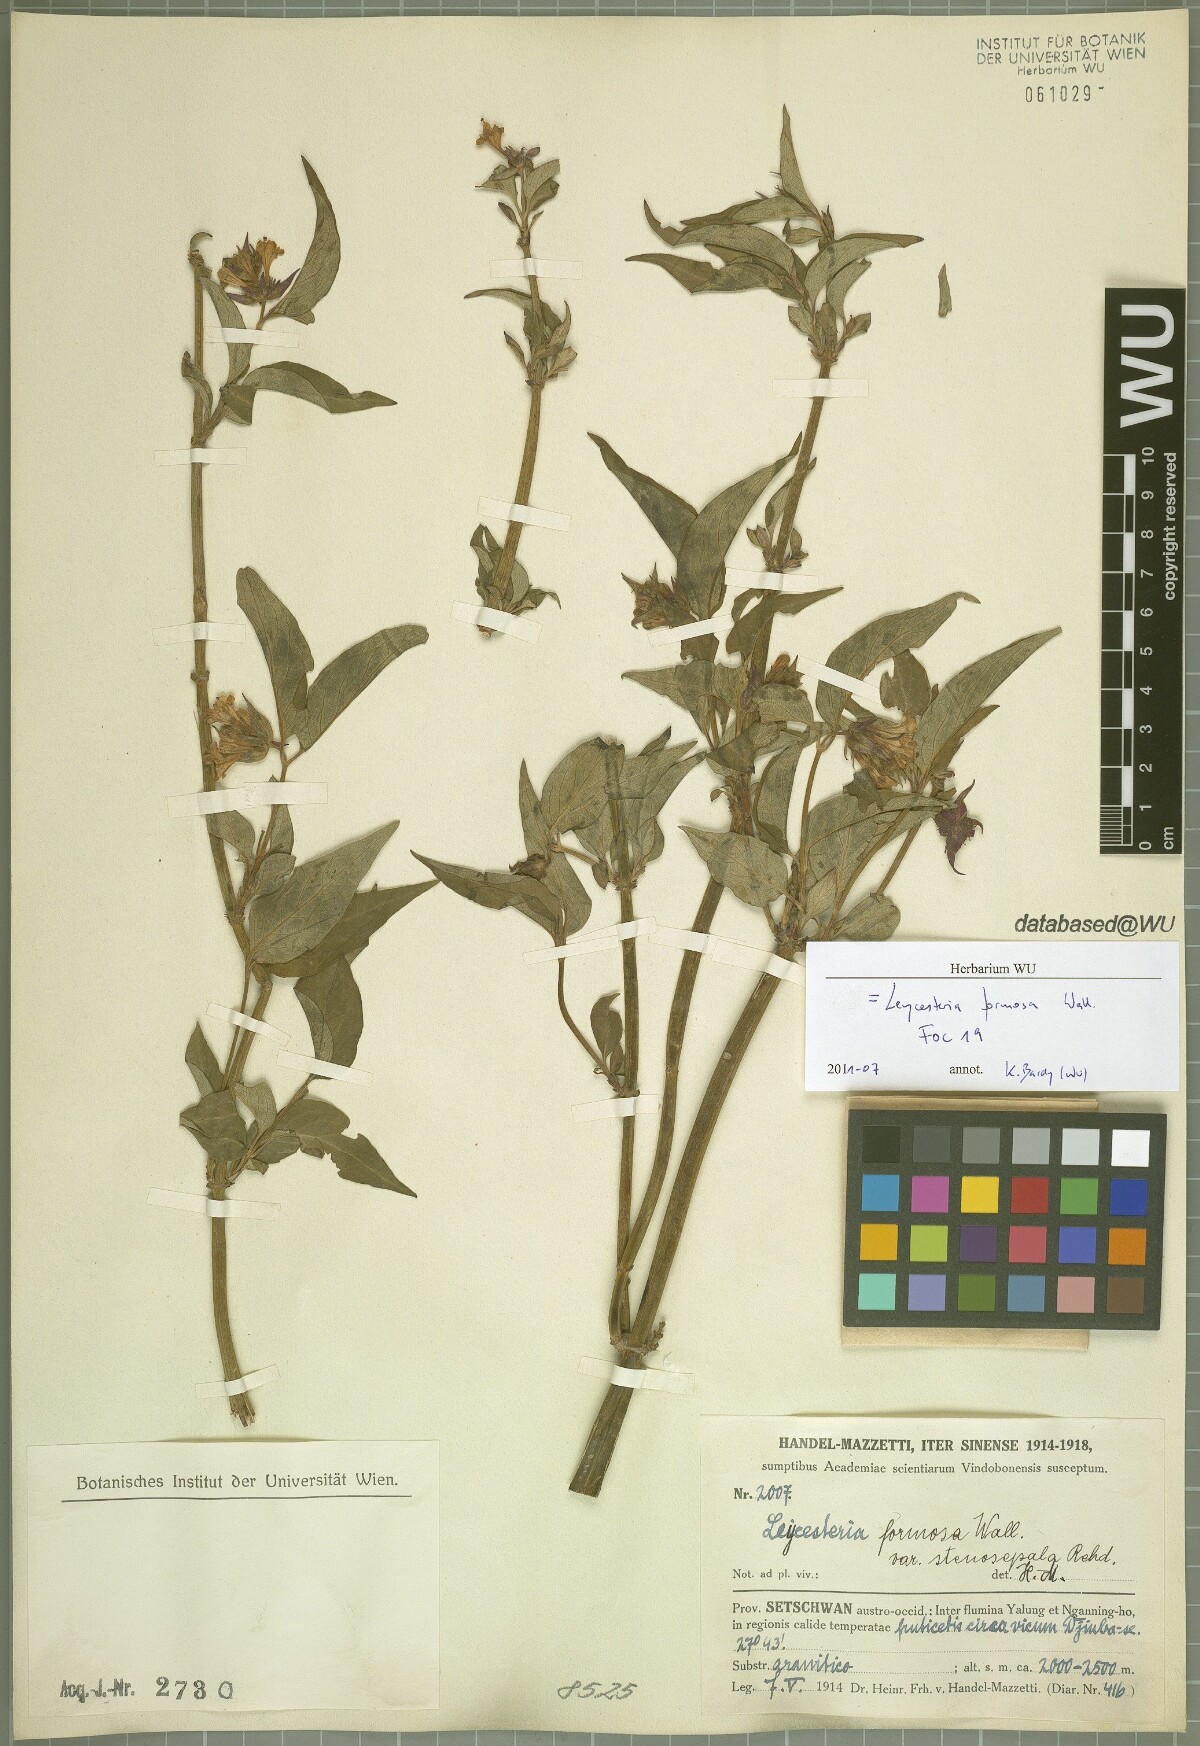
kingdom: Plantae
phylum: Tracheophyta
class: Magnoliopsida
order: Dipsacales
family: Caprifoliaceae
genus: Leycesteria
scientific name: Leycesteria formosa
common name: Himalayan honeysuckle
